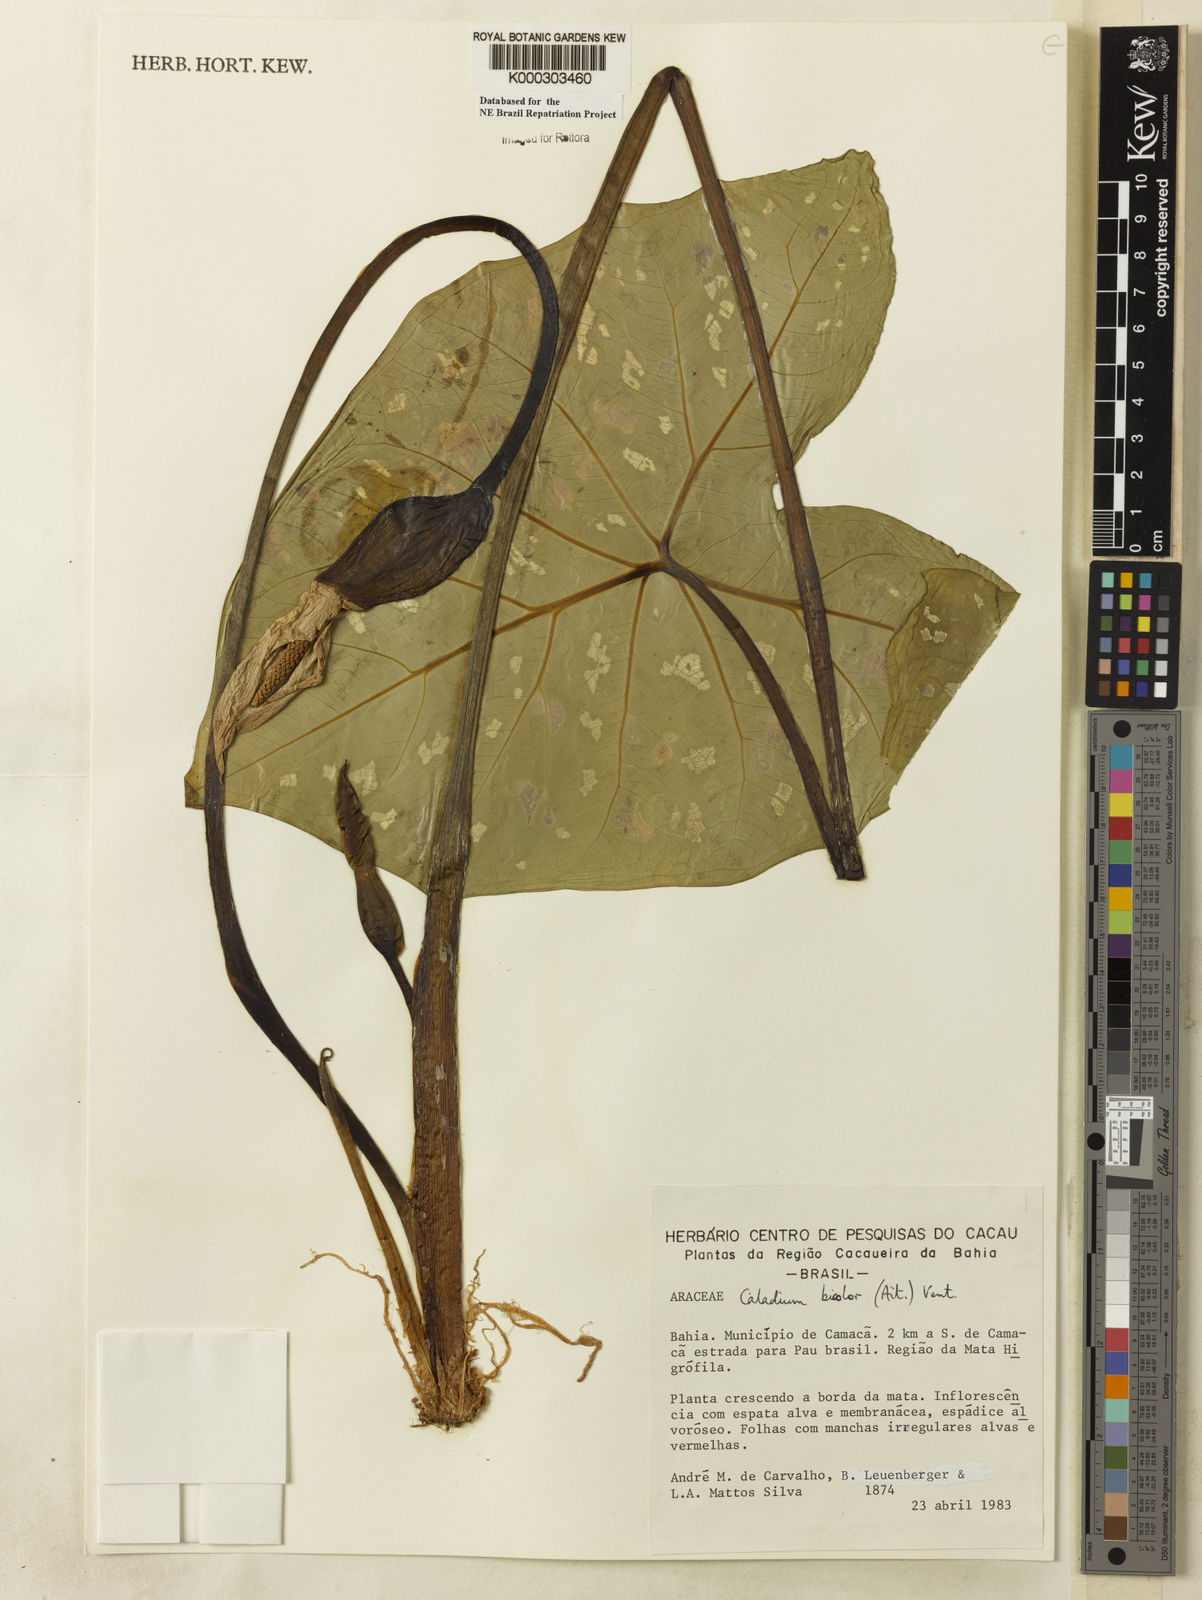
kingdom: Plantae
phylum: Tracheophyta
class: Liliopsida
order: Alismatales
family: Araceae
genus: Caladium
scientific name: Caladium bicolor
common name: Artist's pallet
